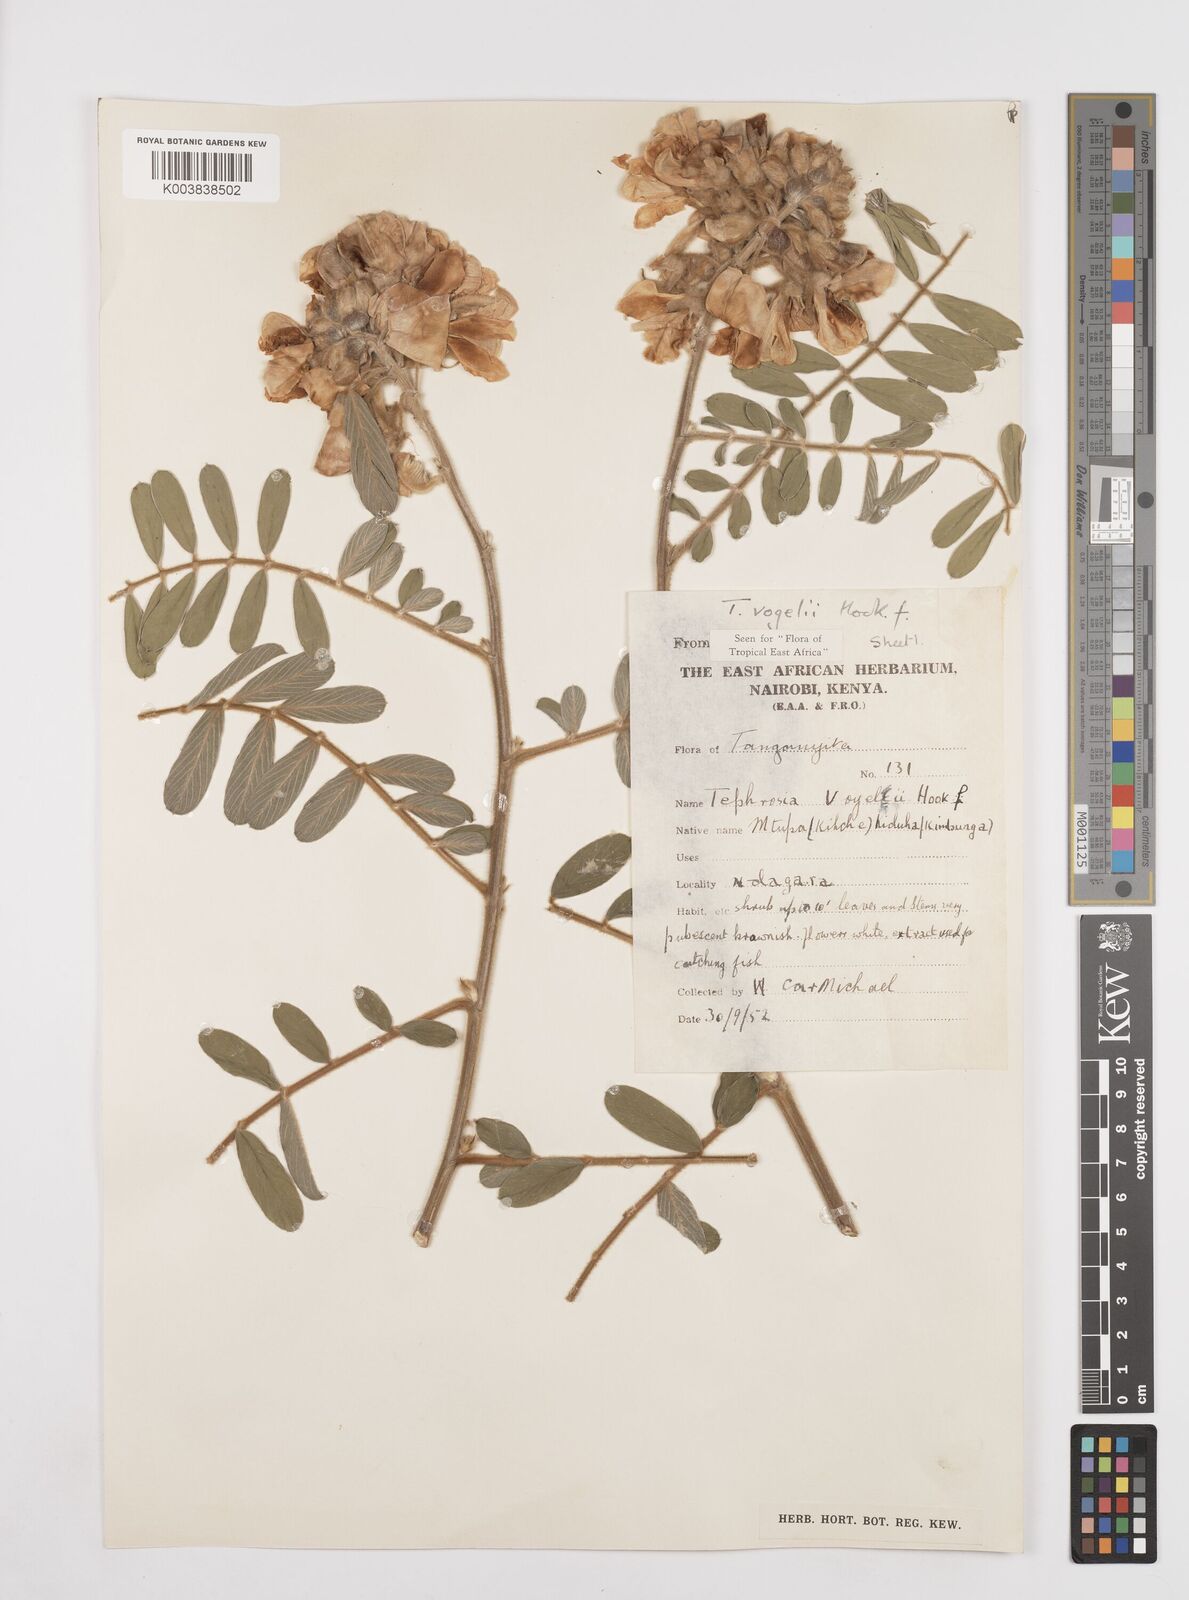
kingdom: Plantae
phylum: Tracheophyta
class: Magnoliopsida
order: Fabales
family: Fabaceae
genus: Tephrosia
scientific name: Tephrosia vogelii
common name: Vogel tephrosia
